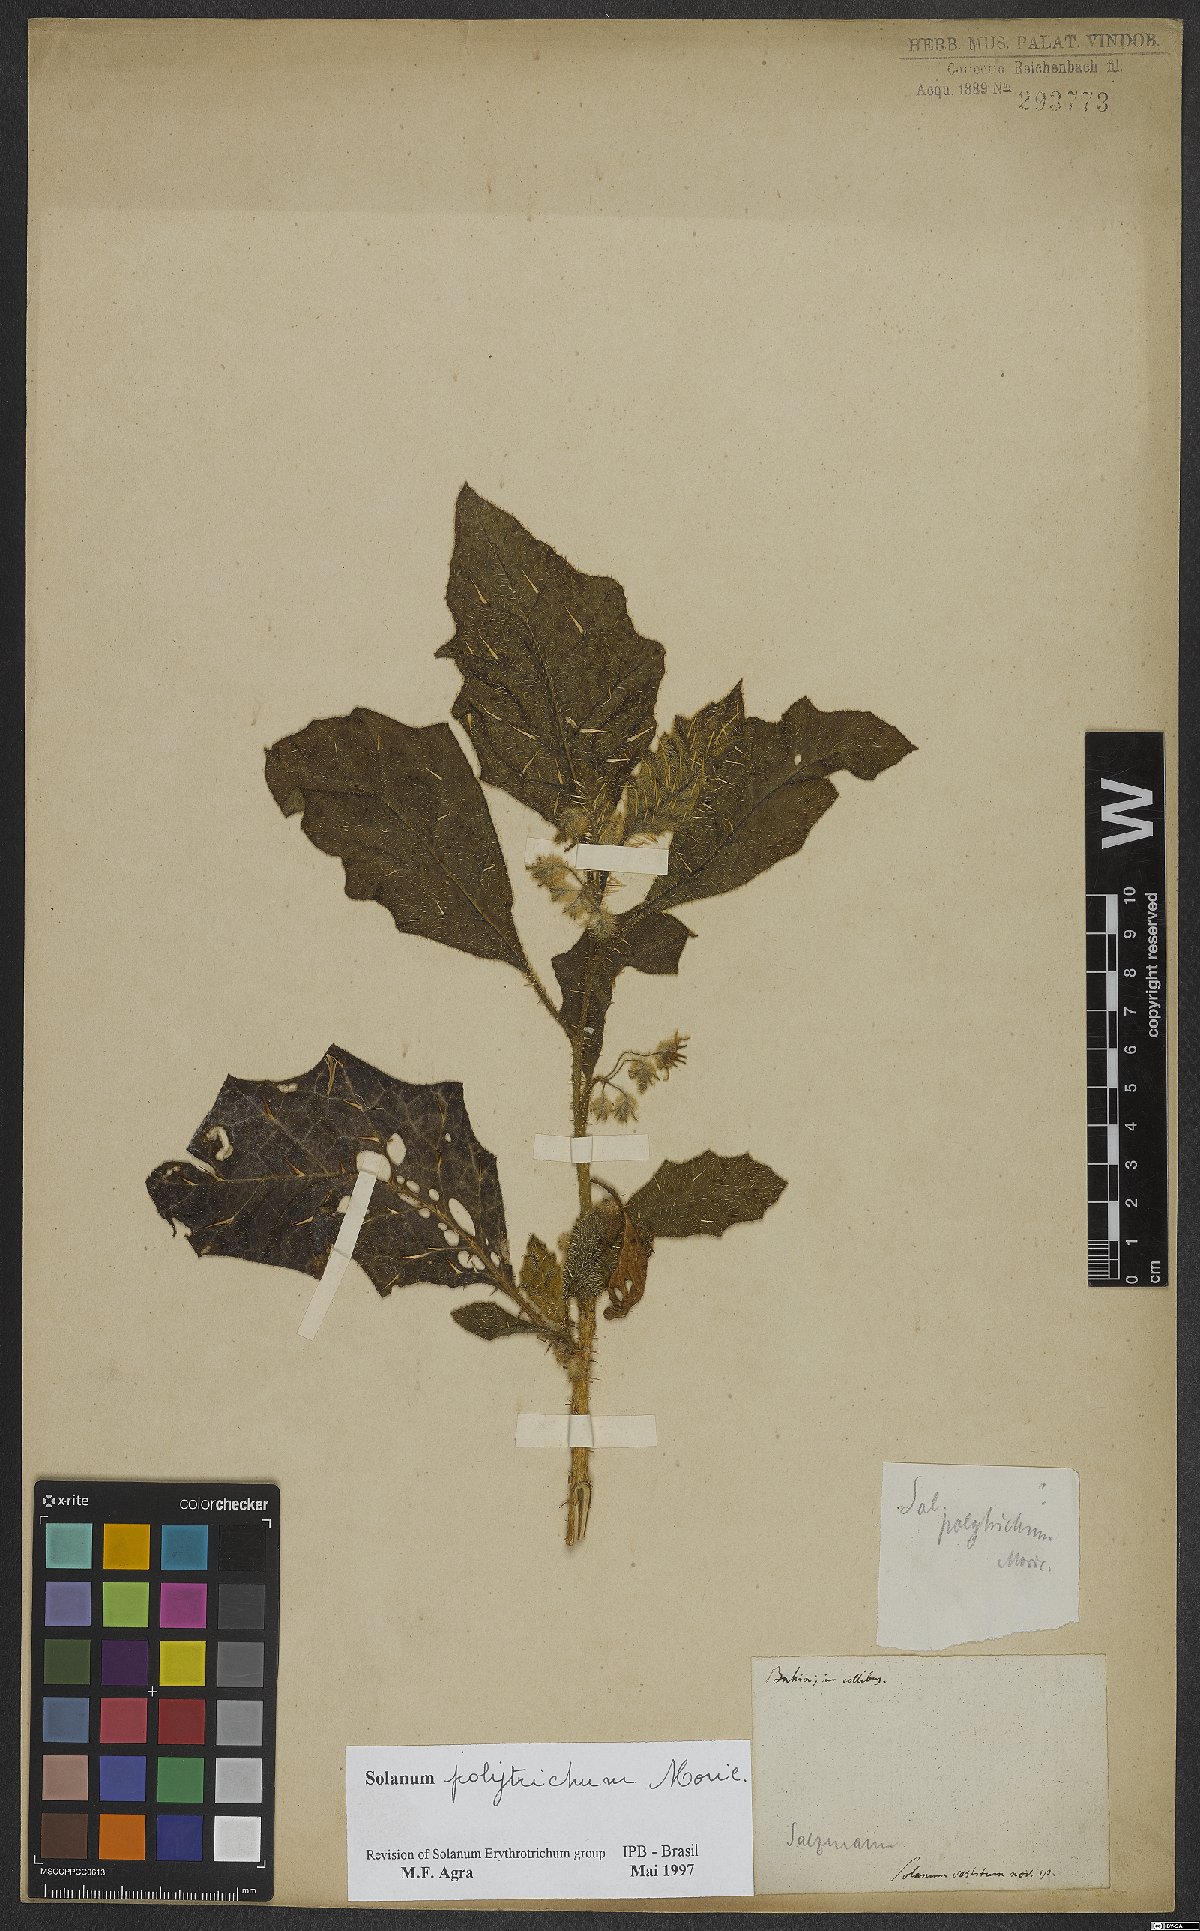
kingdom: Plantae
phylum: Tracheophyta
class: Magnoliopsida
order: Solanales
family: Solanaceae
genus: Solanum
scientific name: Solanum polytrichum
